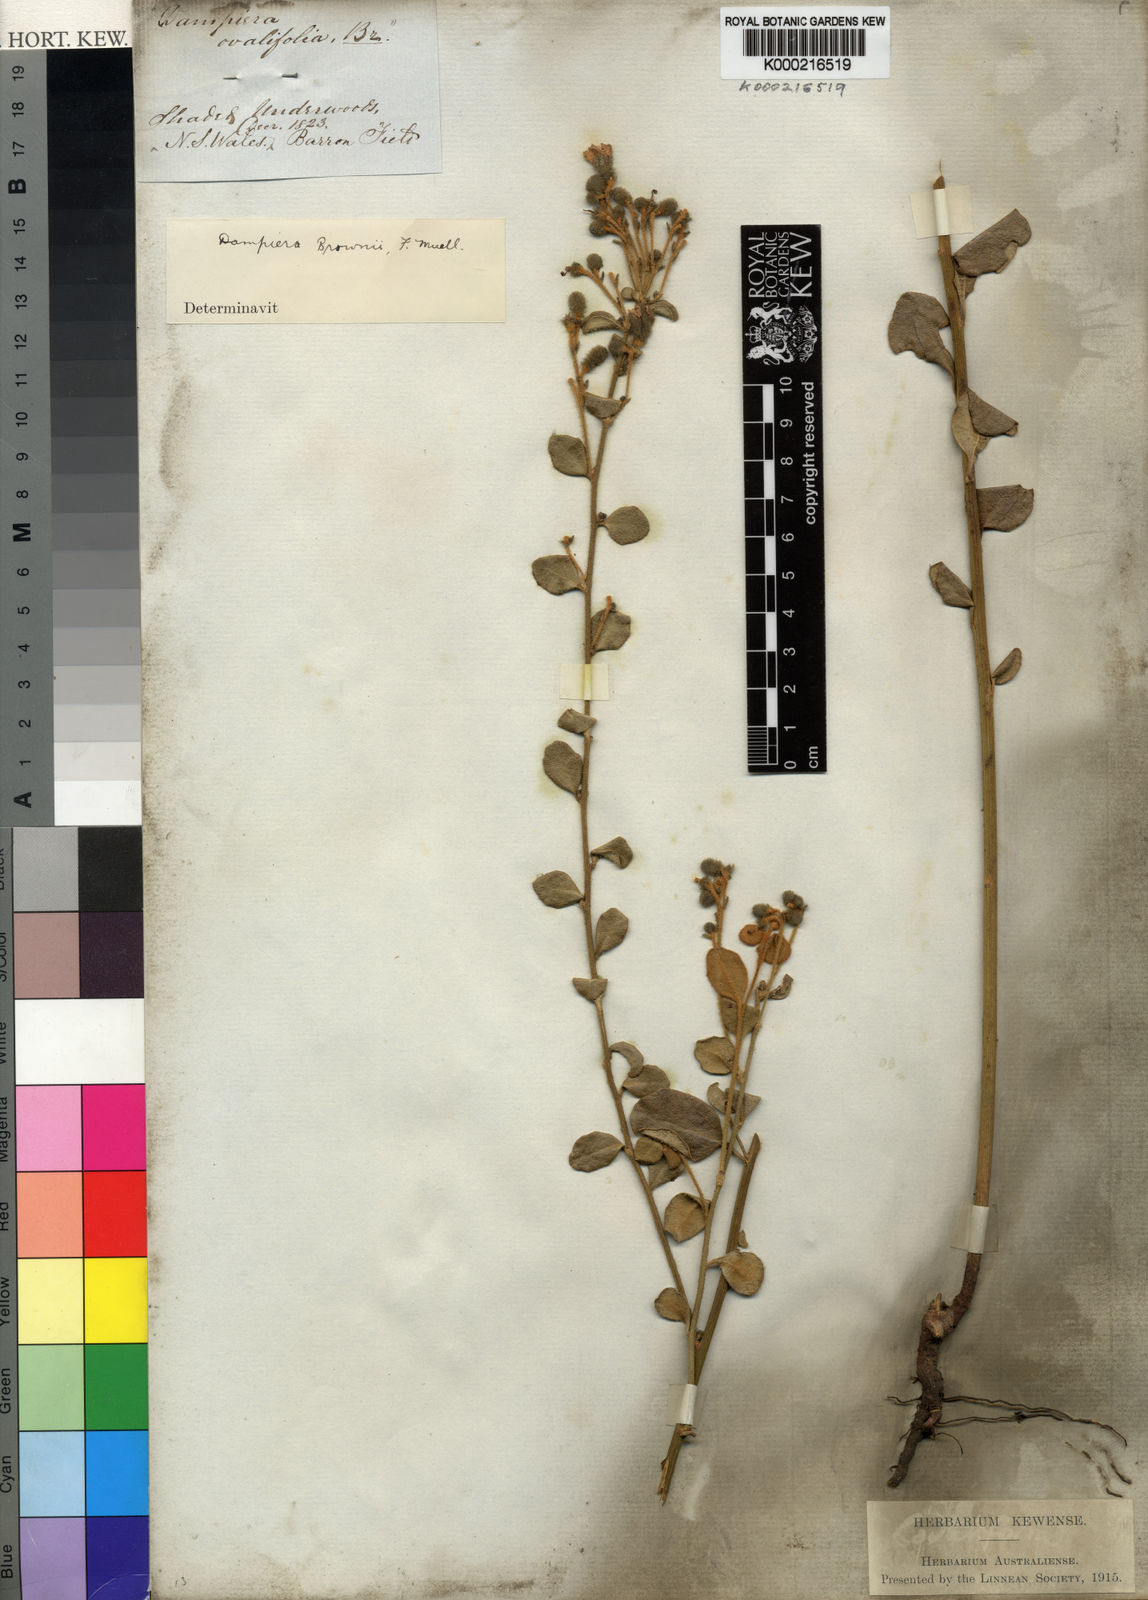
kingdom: Plantae
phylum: Tracheophyta
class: Magnoliopsida
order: Asterales
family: Goodeniaceae
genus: Dampiera
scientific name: Dampiera purpurea
